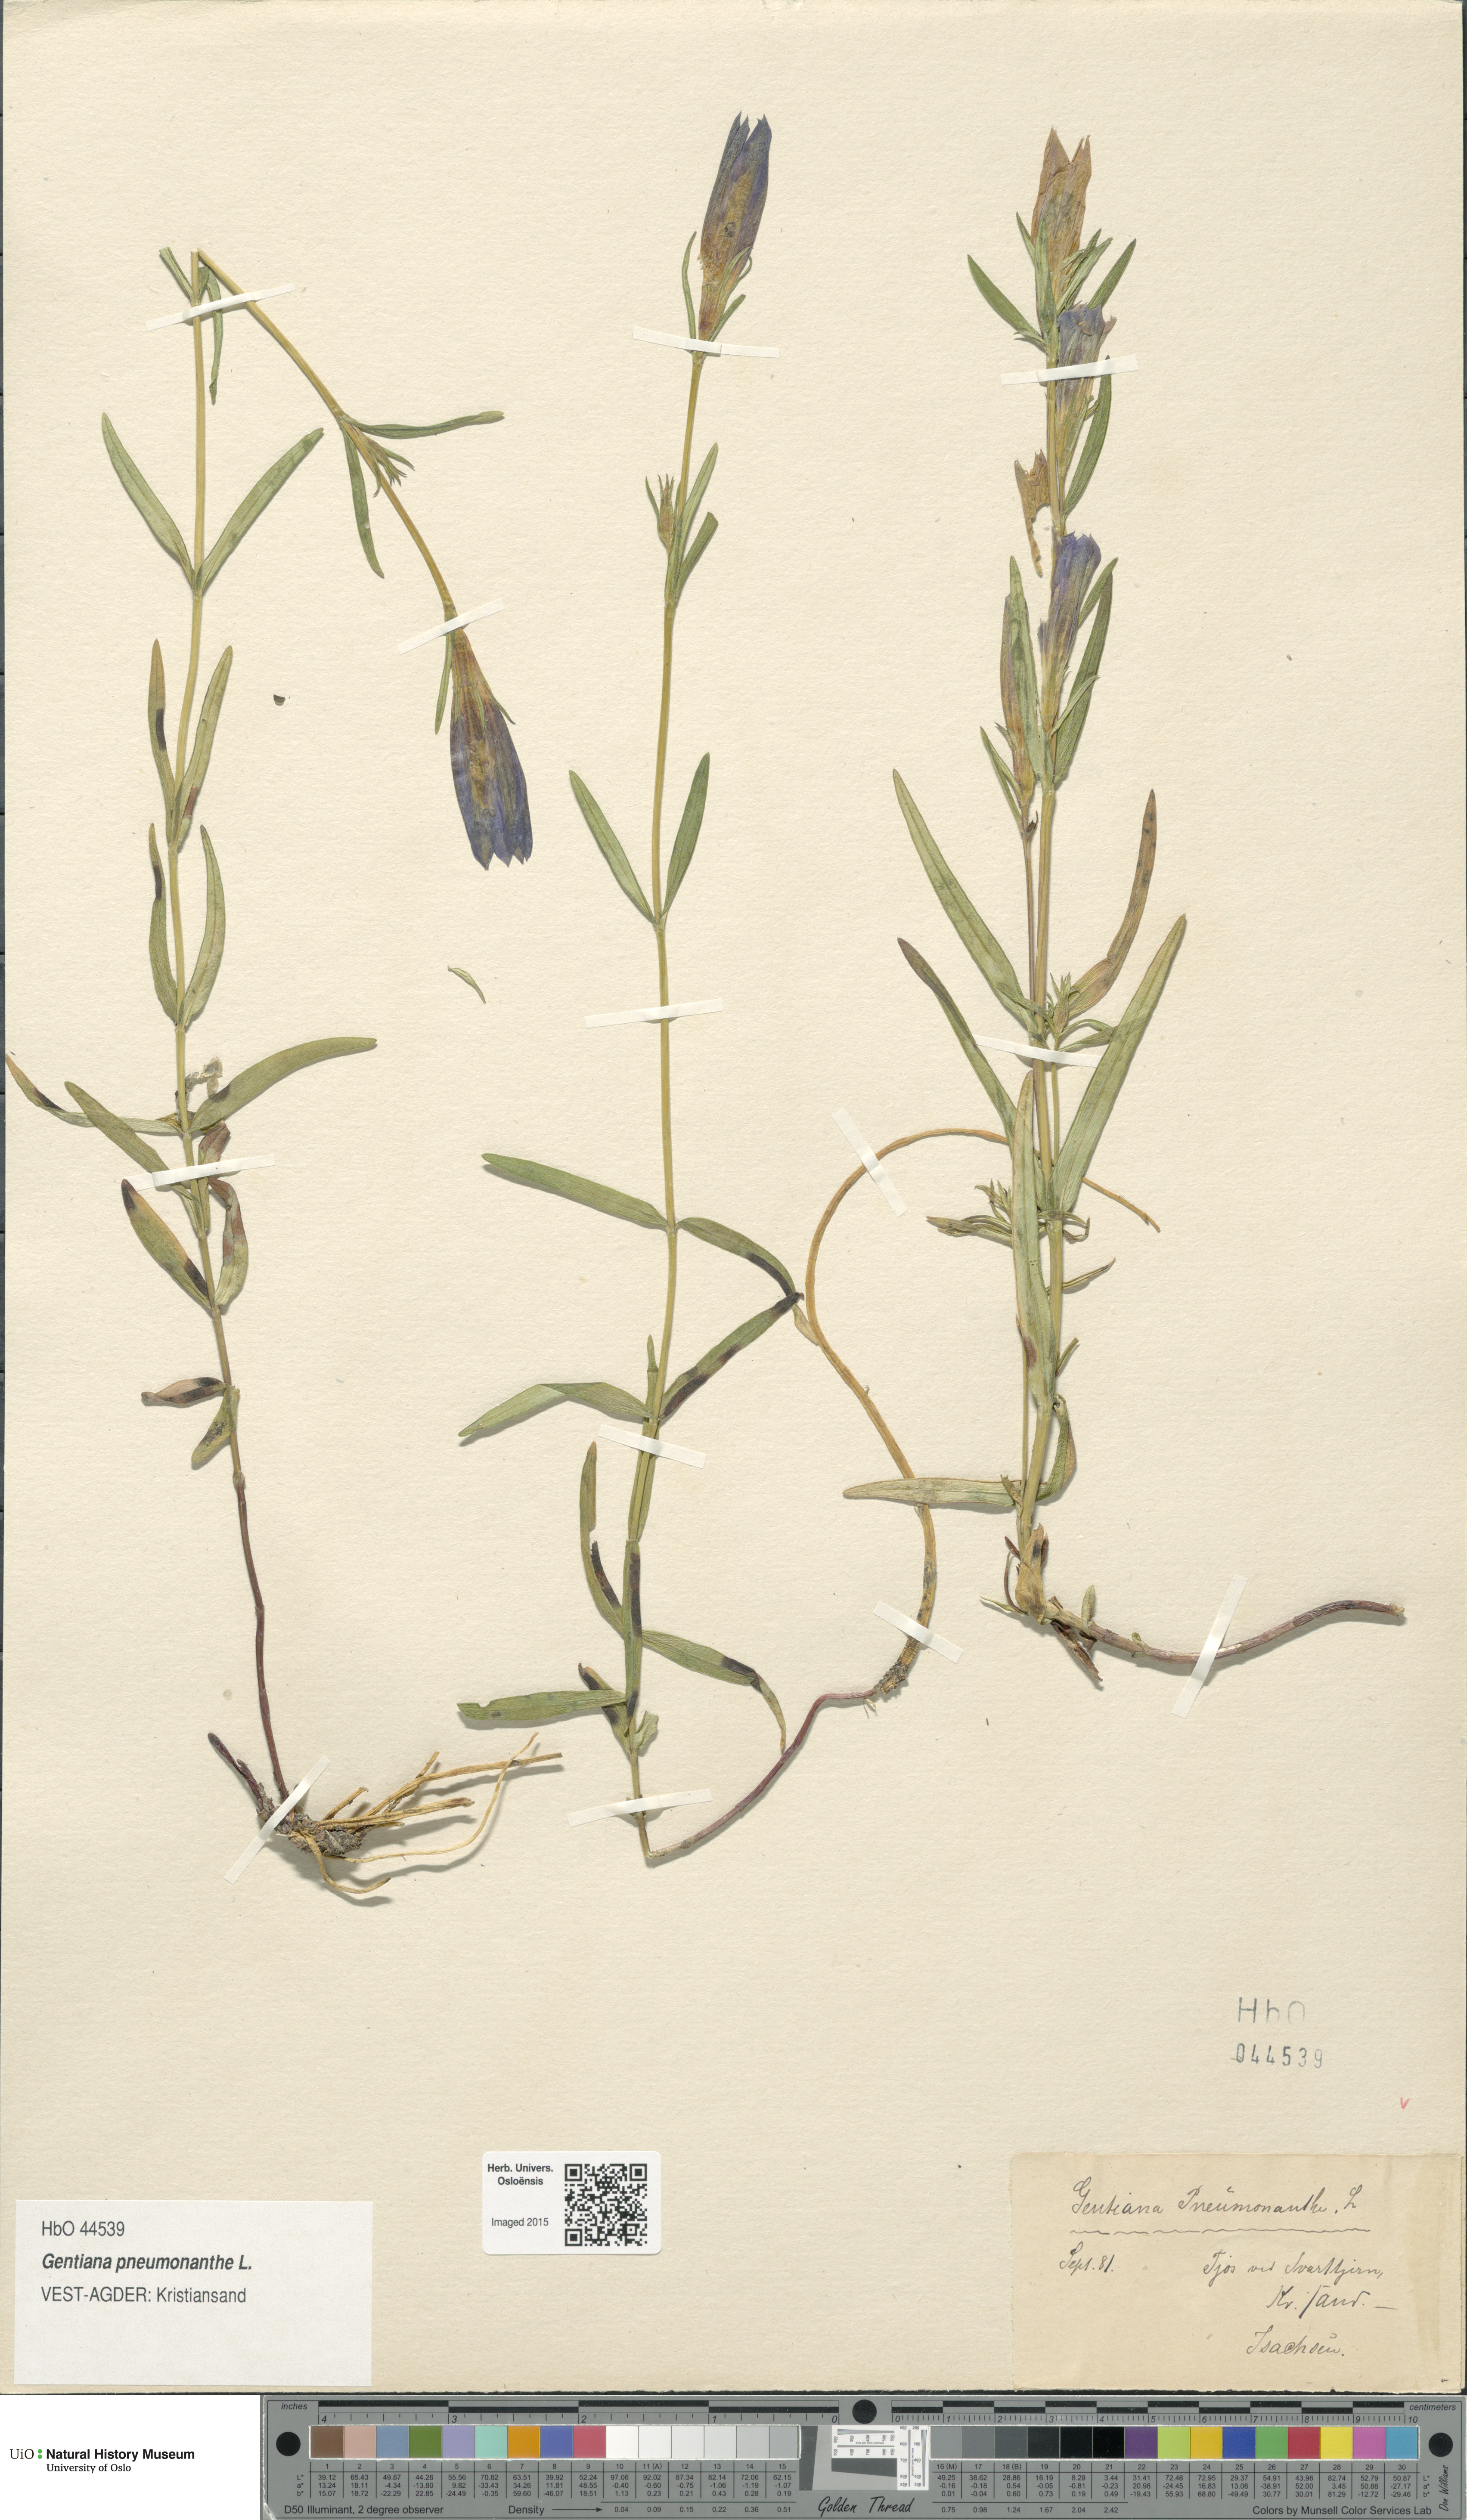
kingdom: Plantae
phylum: Tracheophyta
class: Magnoliopsida
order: Gentianales
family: Gentianaceae
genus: Gentiana
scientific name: Gentiana pneumonanthe
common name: Marsh gentian
